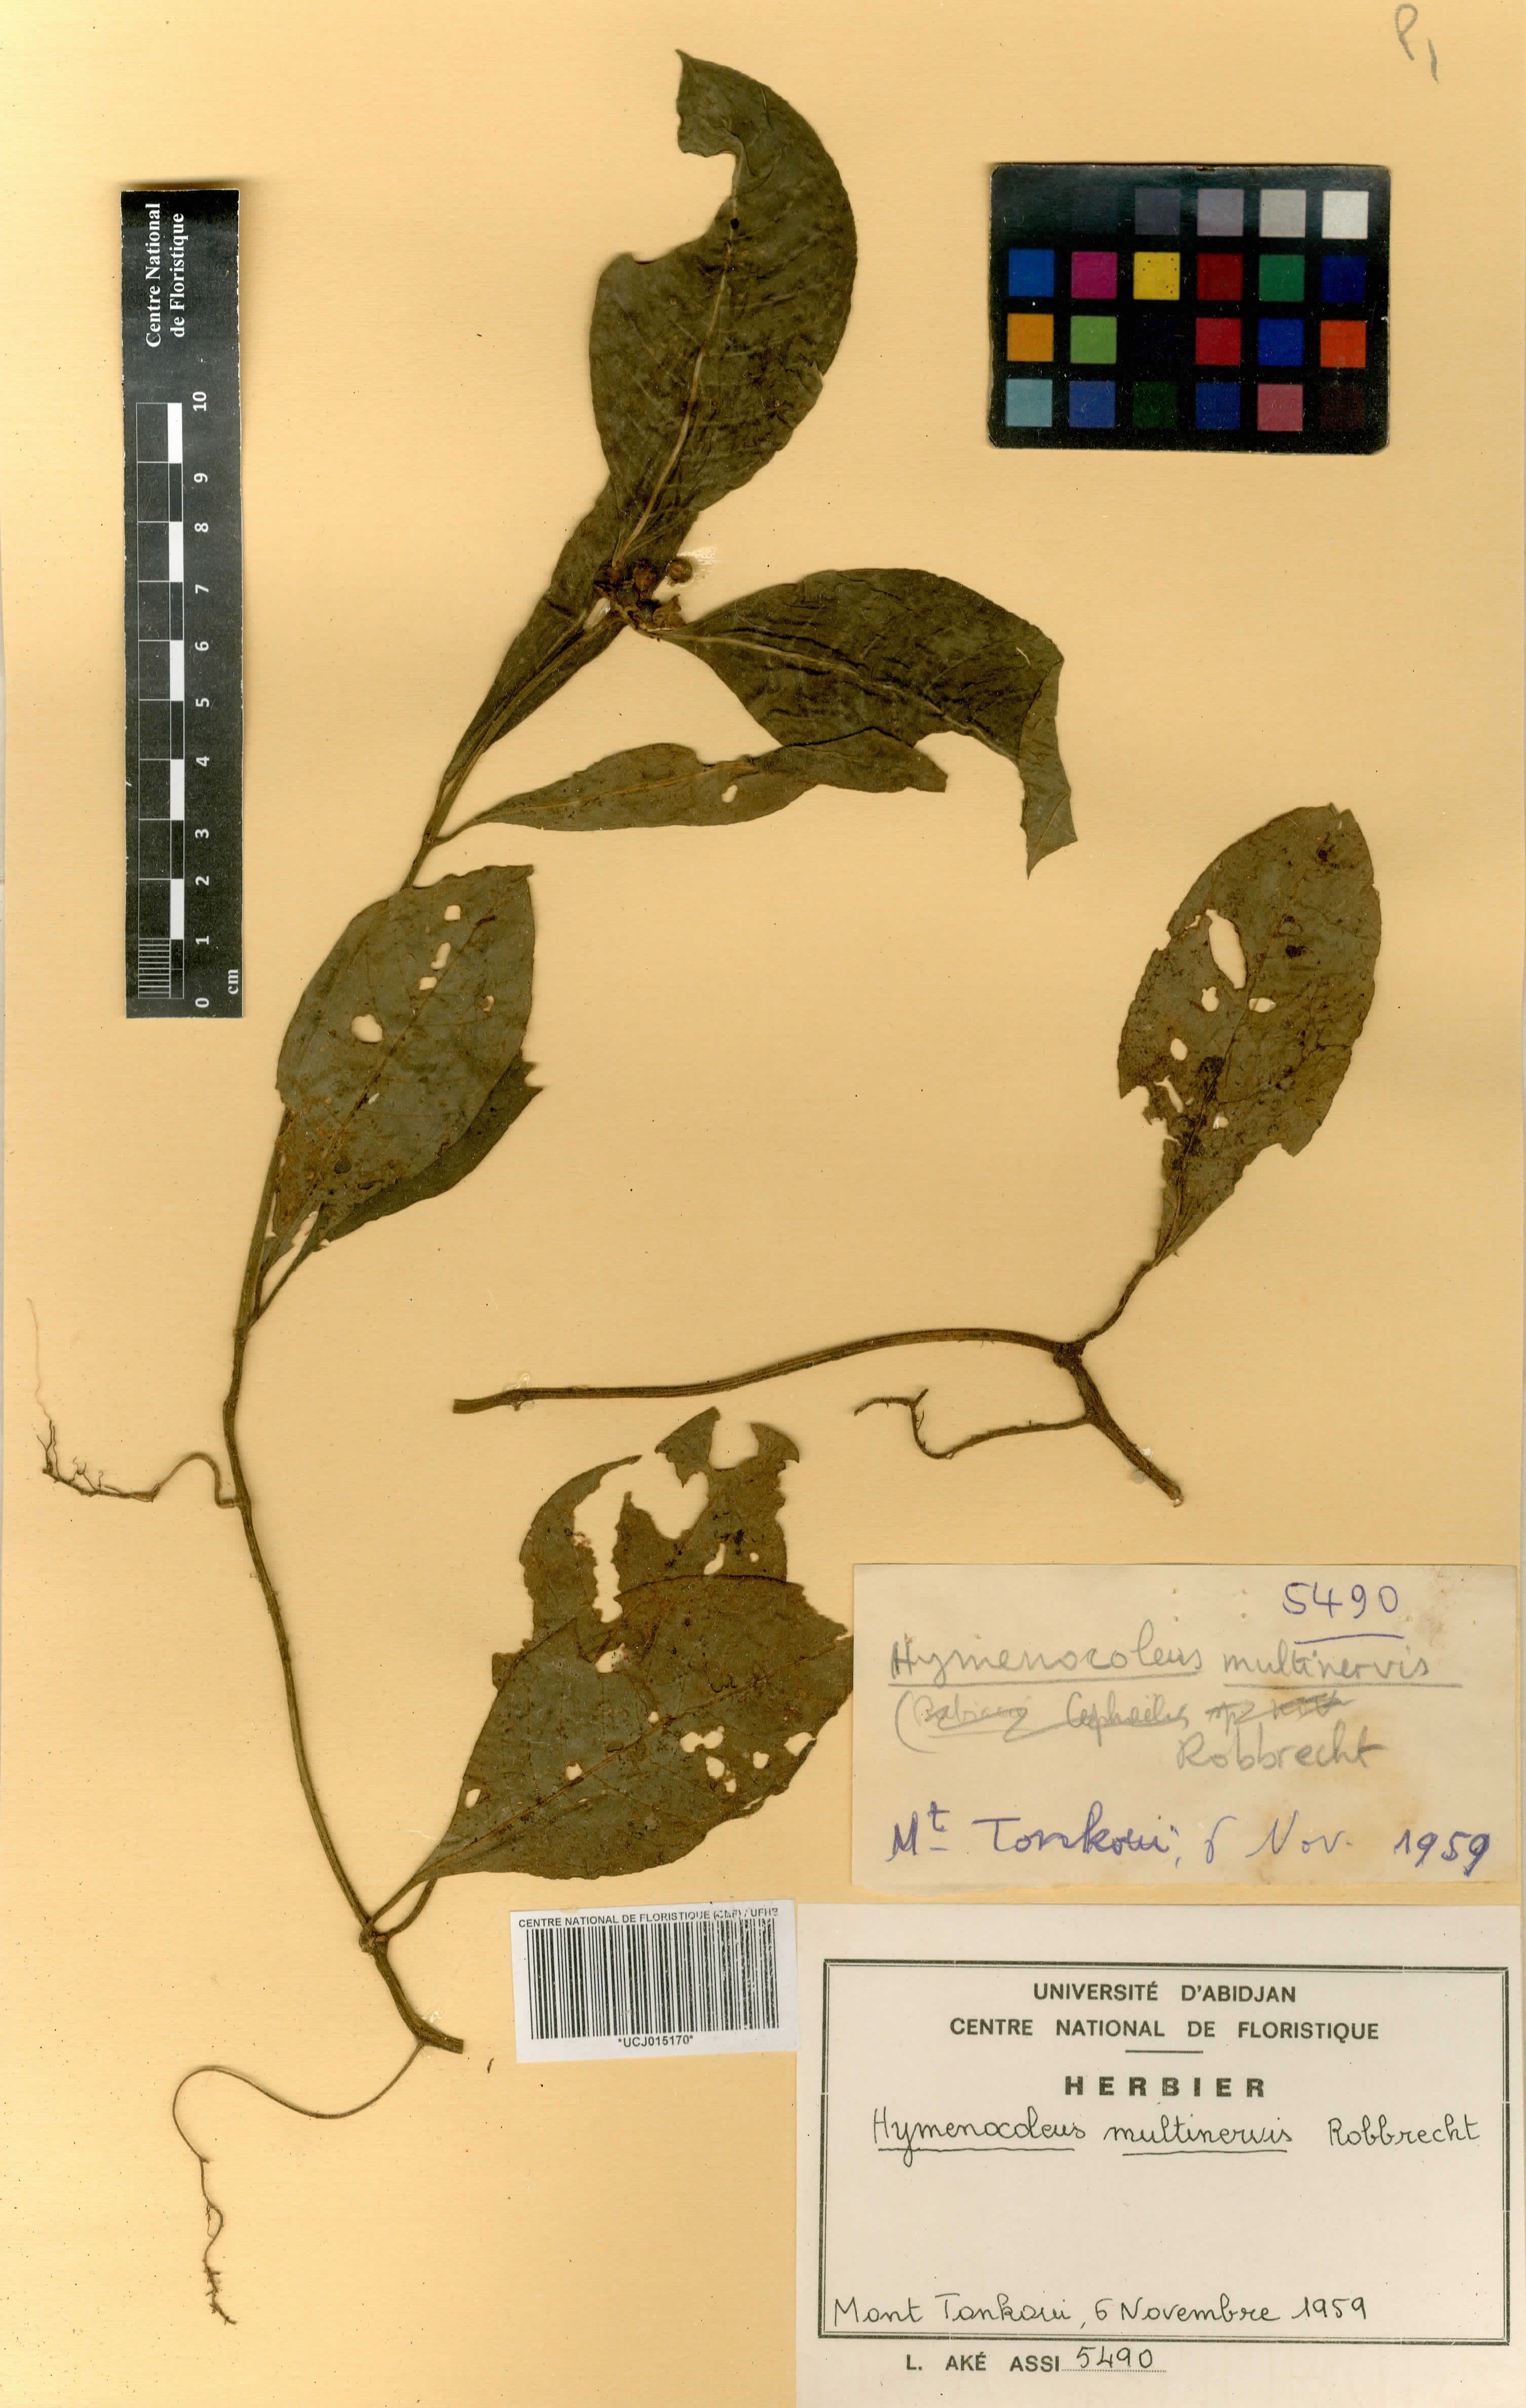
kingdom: Plantae
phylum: Tracheophyta
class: Magnoliopsida
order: Gentianales
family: Rubiaceae
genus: Hymenocoleus
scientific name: Hymenocoleus multinervis
